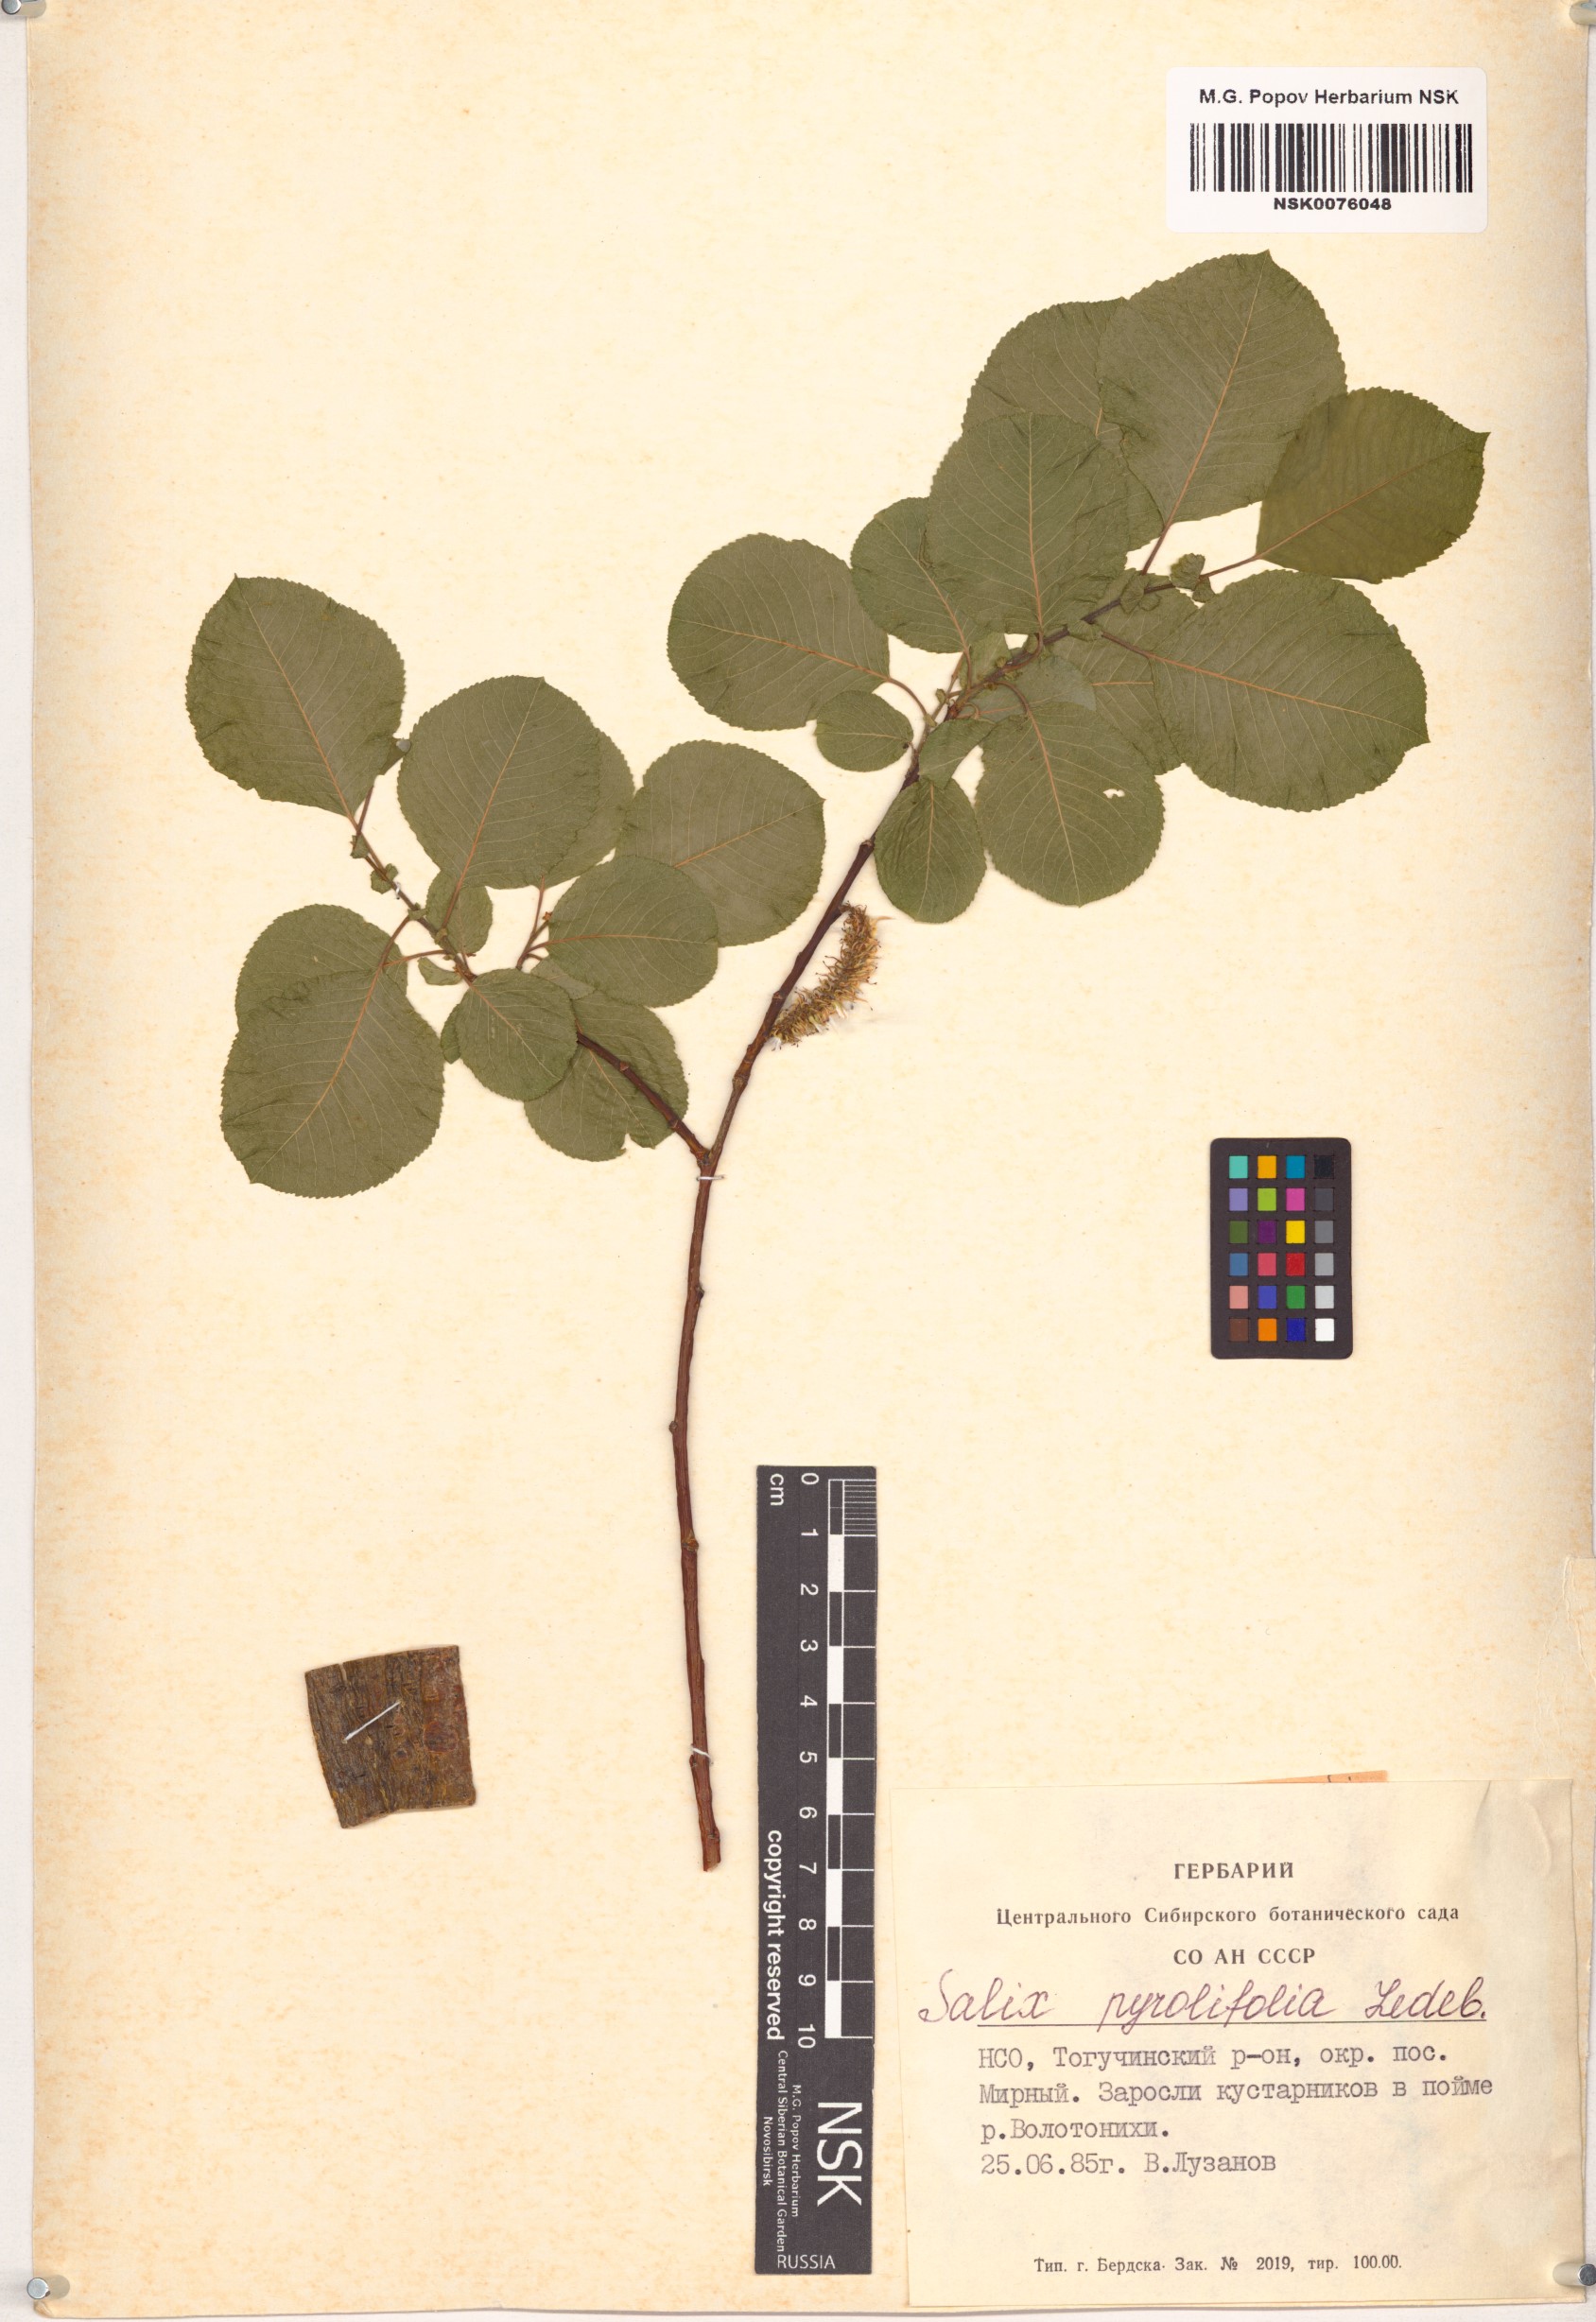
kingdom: Plantae
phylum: Tracheophyta
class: Magnoliopsida
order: Malpighiales
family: Salicaceae
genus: Salix
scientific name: Salix pyrolifolia
